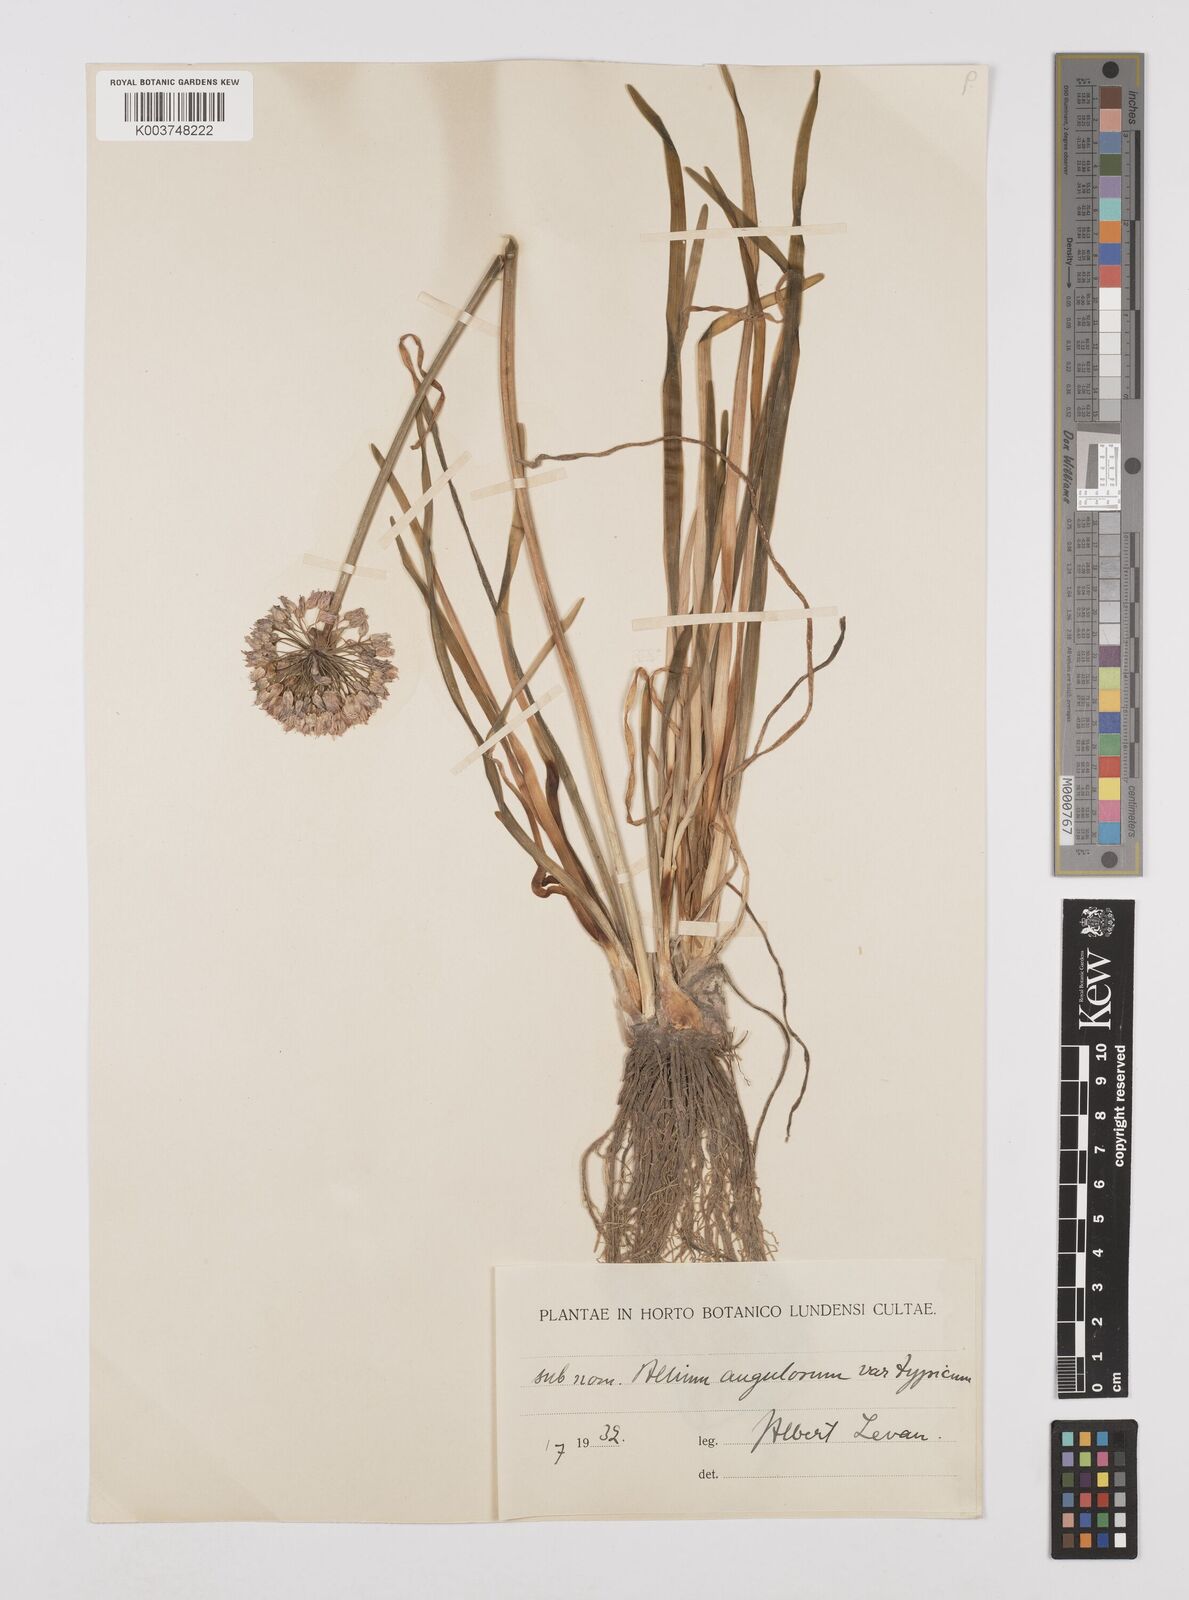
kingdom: Plantae
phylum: Tracheophyta
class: Liliopsida
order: Asparagales
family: Amaryllidaceae
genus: Allium
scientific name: Allium angulosum
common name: Mouse garlic
